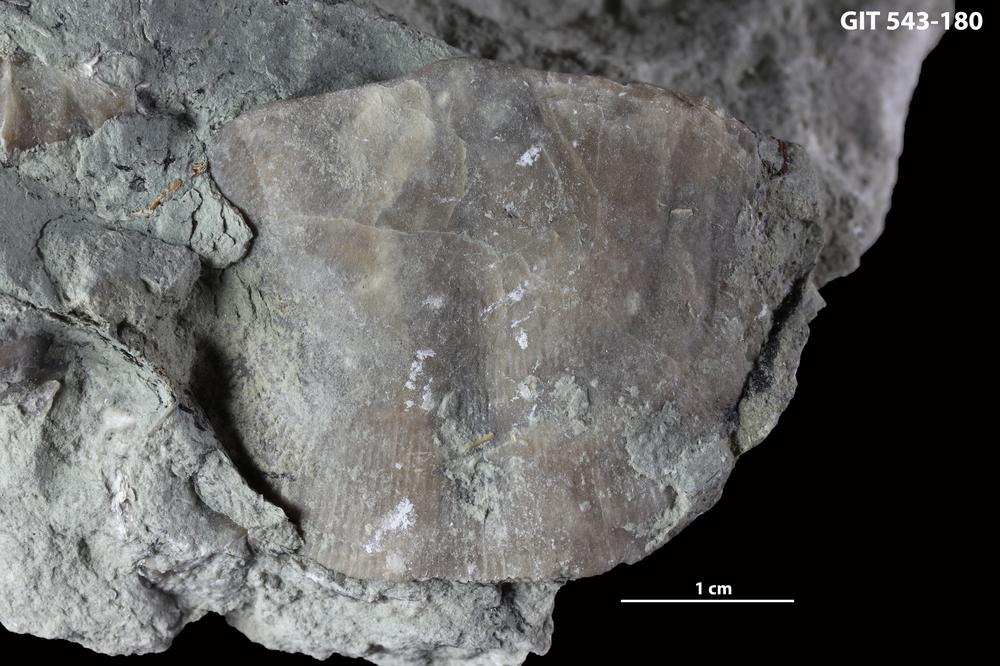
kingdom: Animalia
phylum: Brachiopoda
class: Rhynchonellata
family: Clitambonitidae
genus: Clinambon
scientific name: Clinambon anomalus
